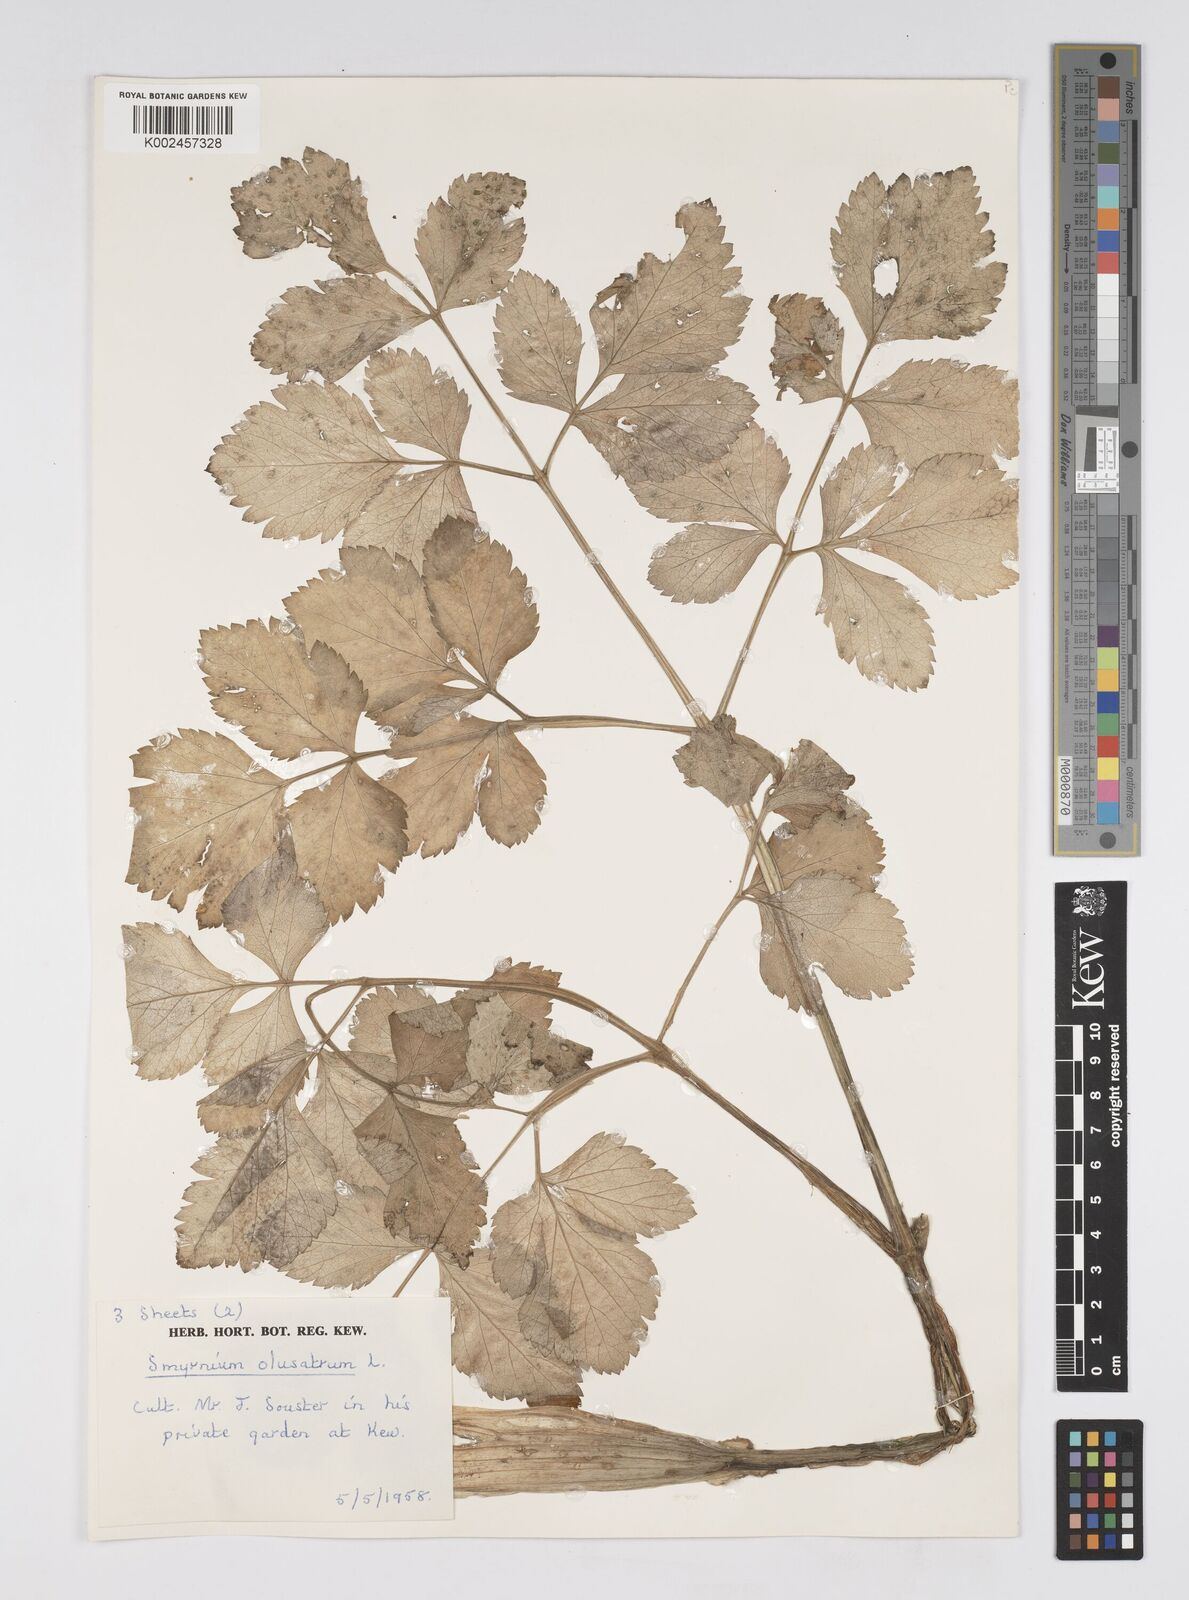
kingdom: Plantae
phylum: Tracheophyta
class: Magnoliopsida
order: Apiales
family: Apiaceae
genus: Smyrnium
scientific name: Smyrnium olusatrum
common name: Alexanders
